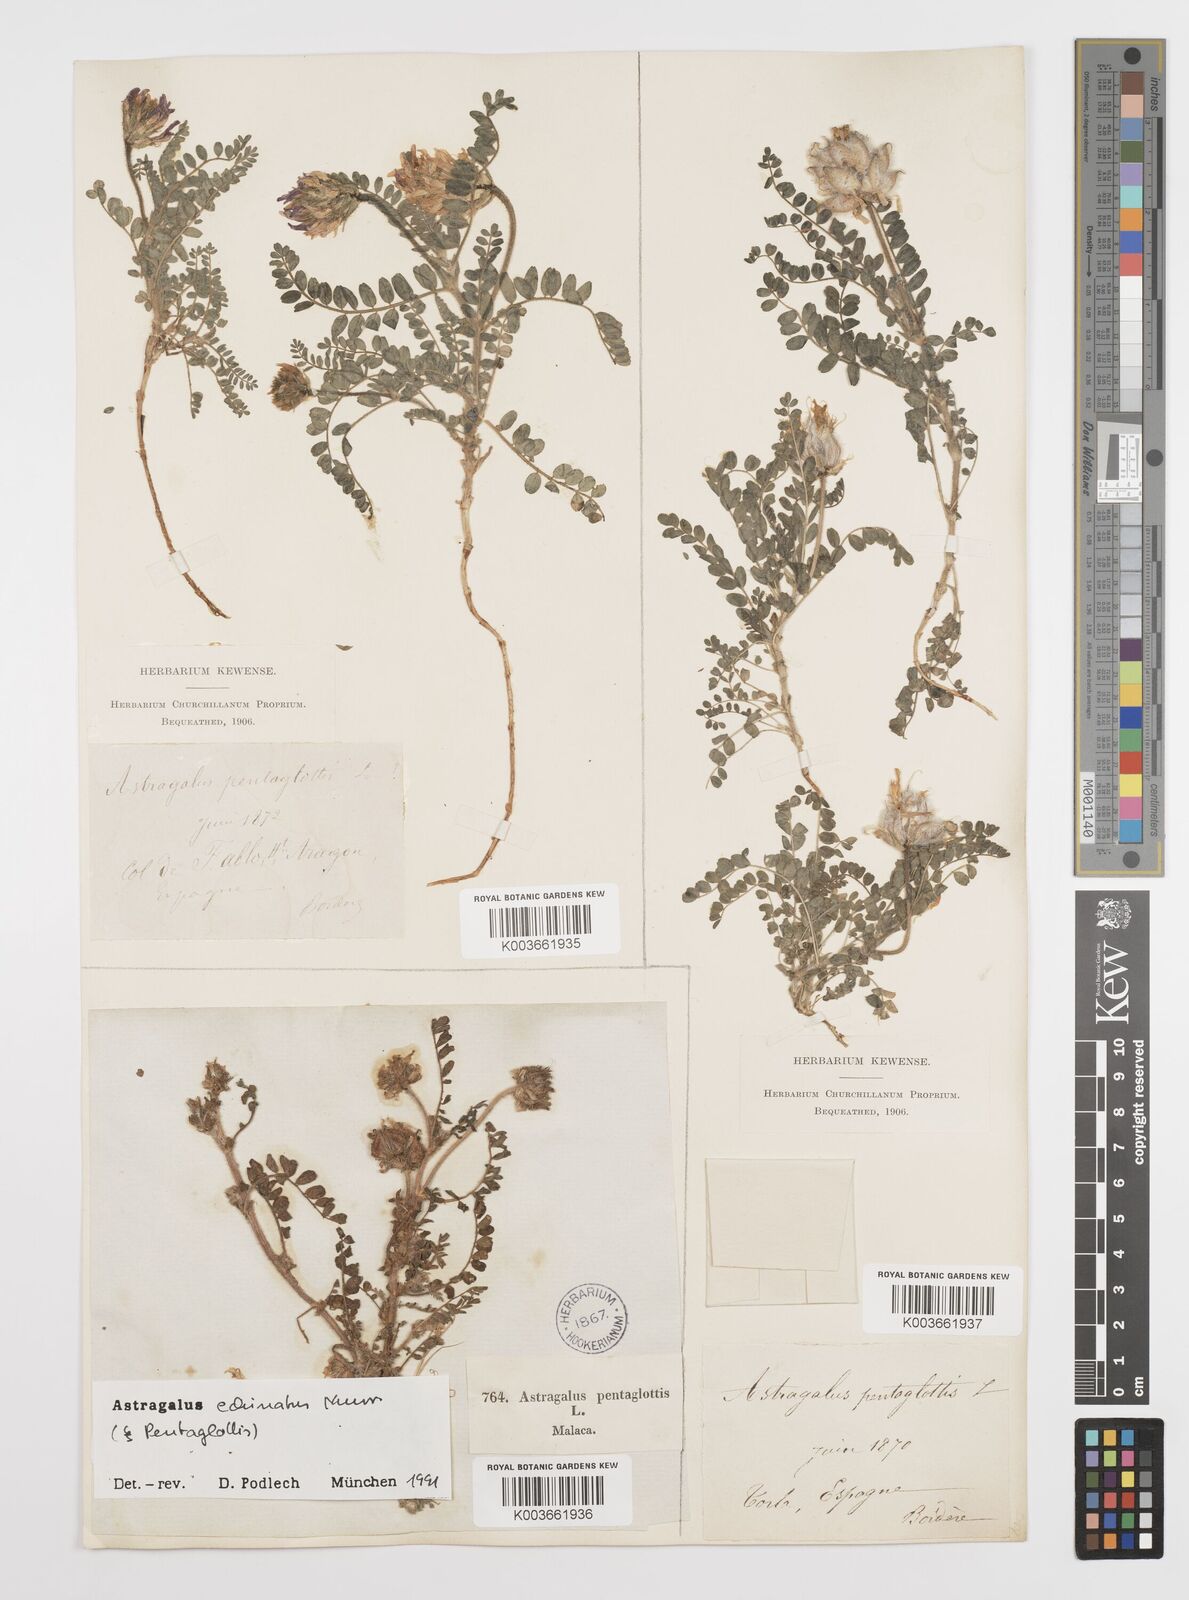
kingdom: Plantae
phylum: Tracheophyta
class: Magnoliopsida
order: Fabales
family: Fabaceae
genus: Astragalus
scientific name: Astragalus echinatus
